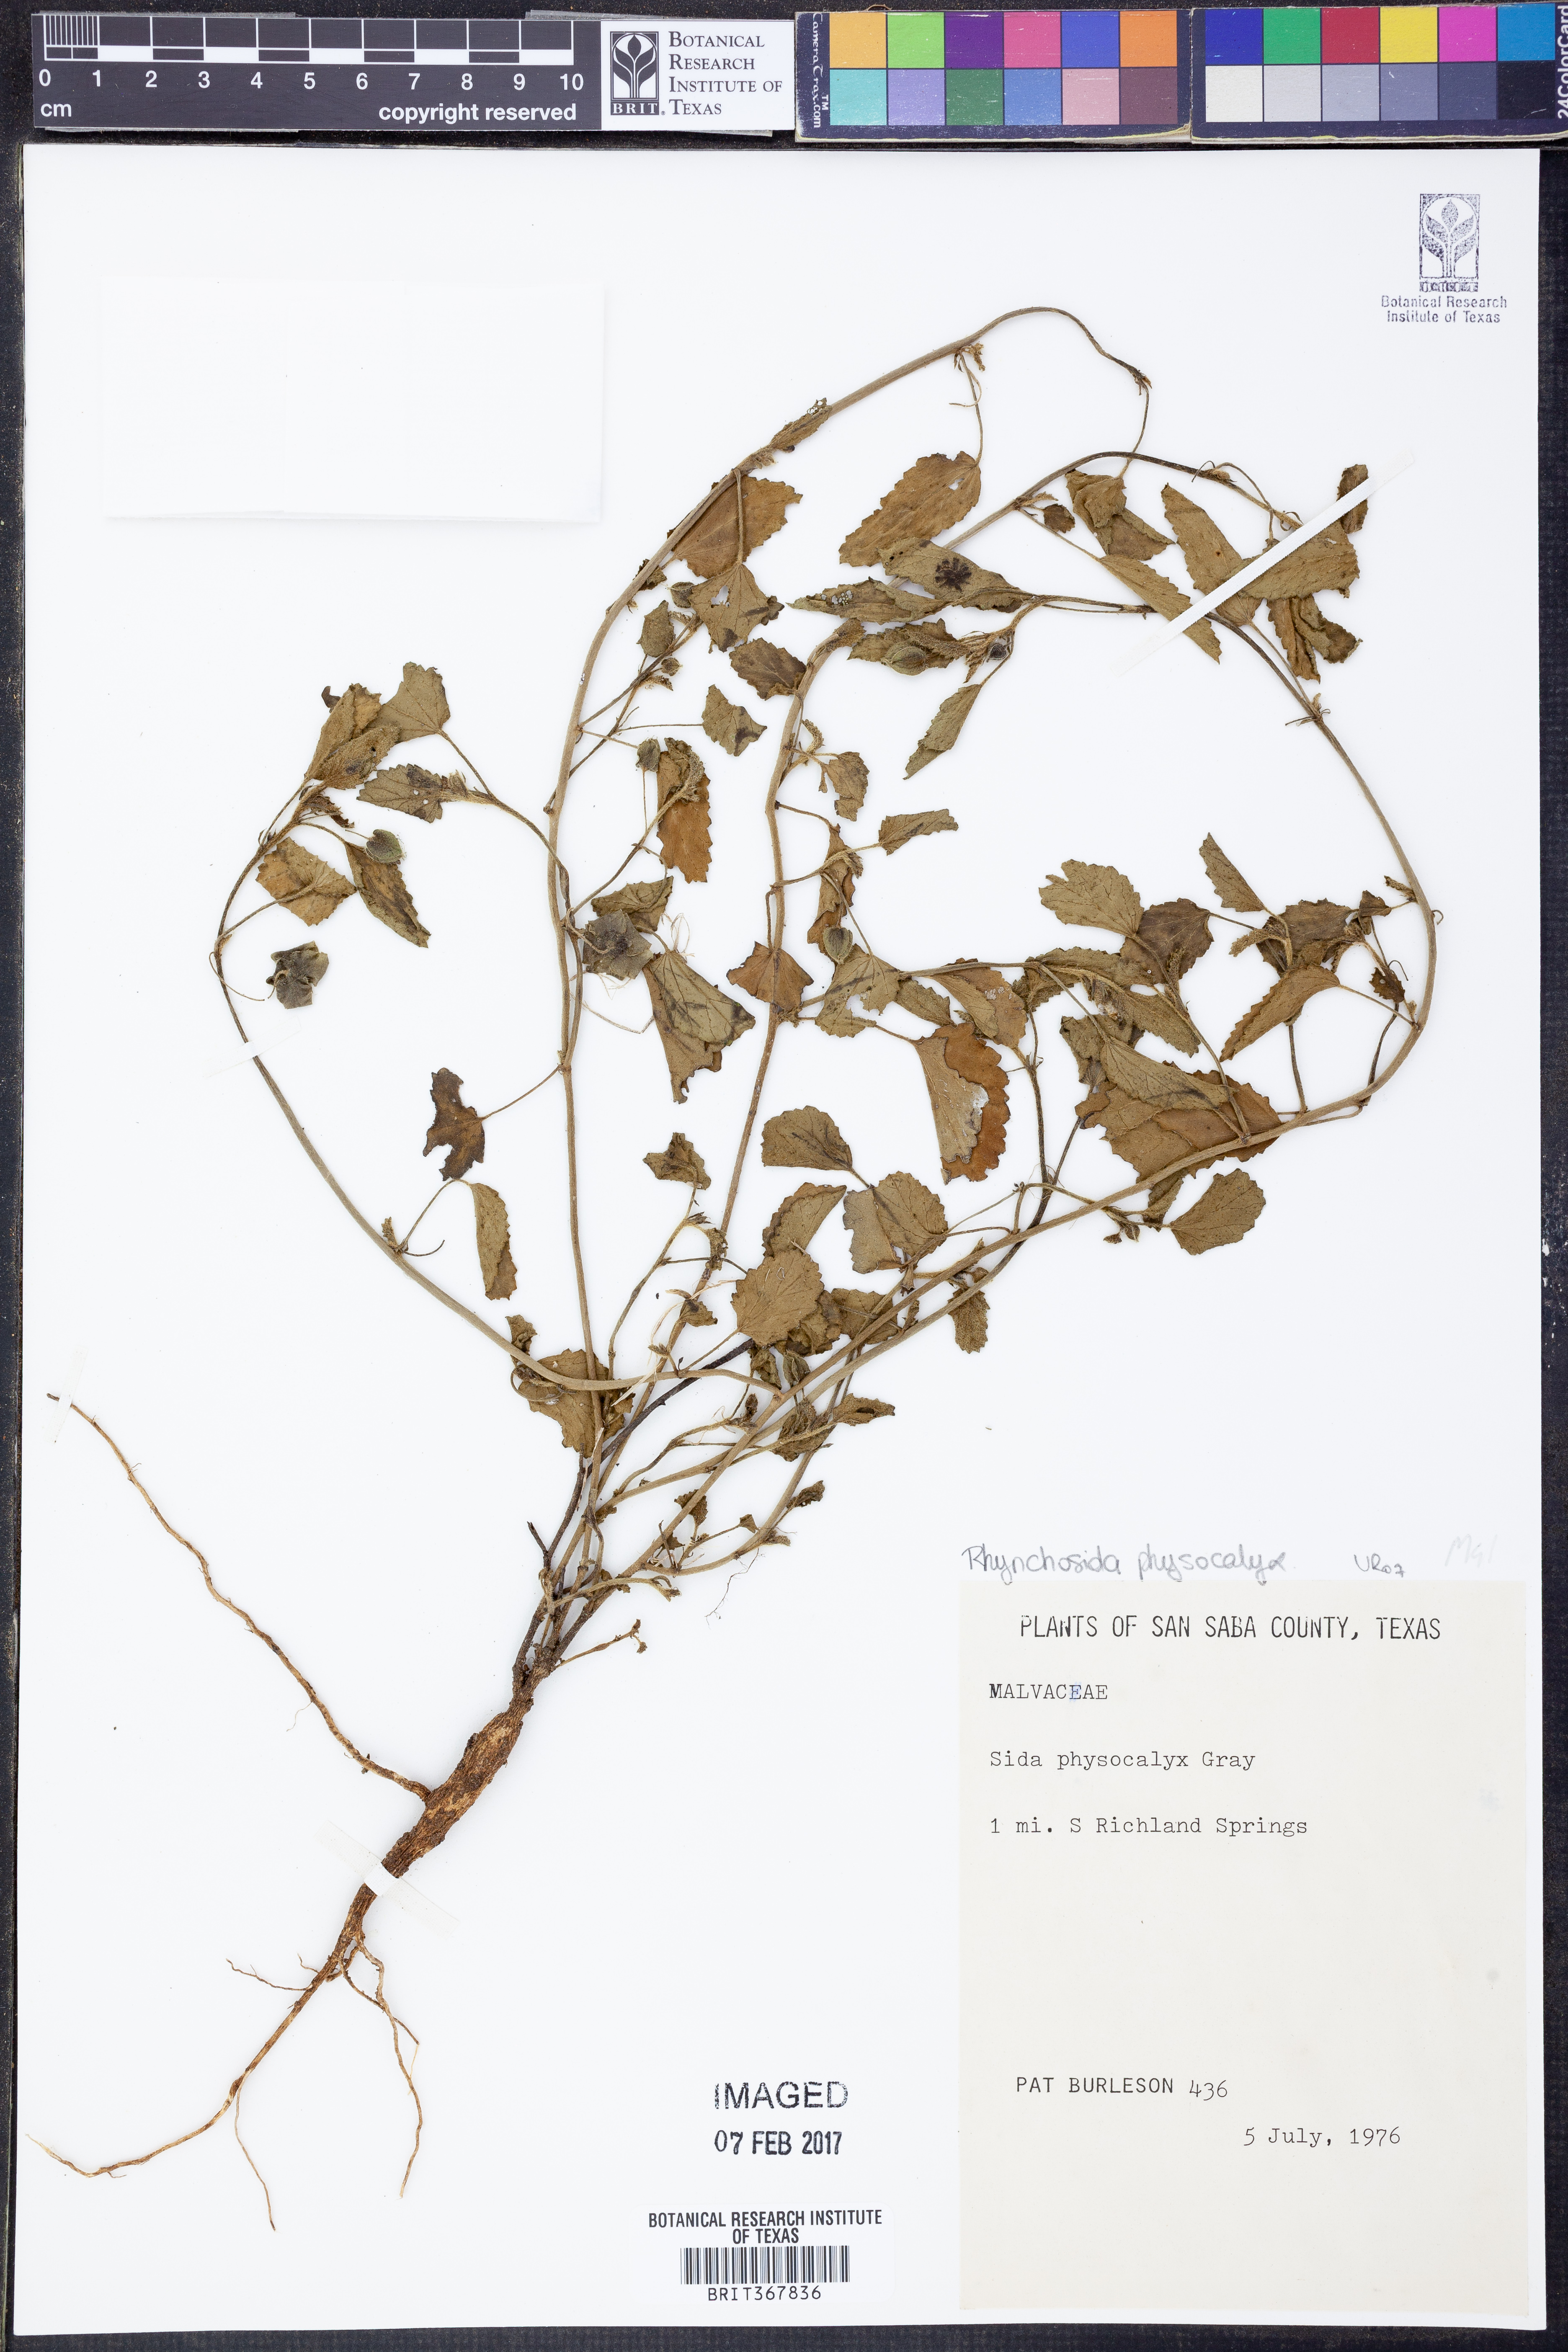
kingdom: Plantae
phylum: Tracheophyta
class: Magnoliopsida
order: Malvales
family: Malvaceae
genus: Rhynchosida
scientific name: Rhynchosida physocalyx
